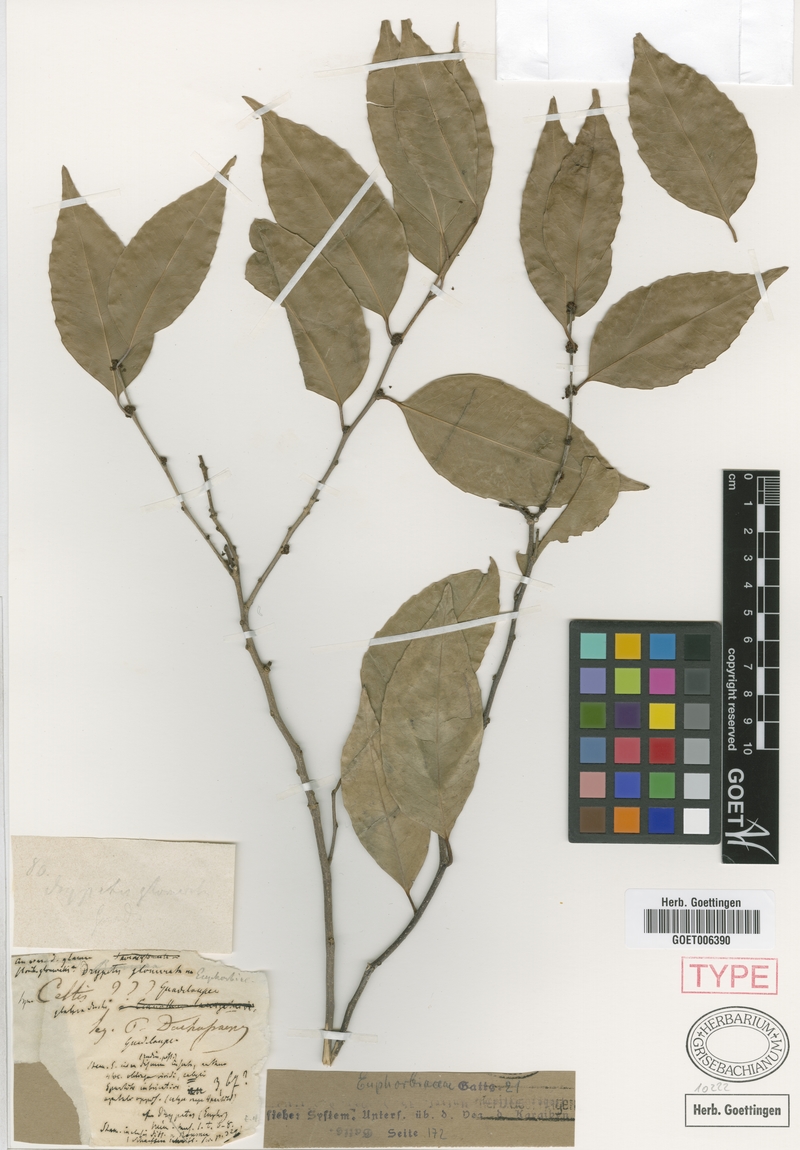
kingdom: Plantae
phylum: Tracheophyta
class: Magnoliopsida
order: Malpighiales
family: Putranjivaceae
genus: Drypetes
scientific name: Drypetes alba
